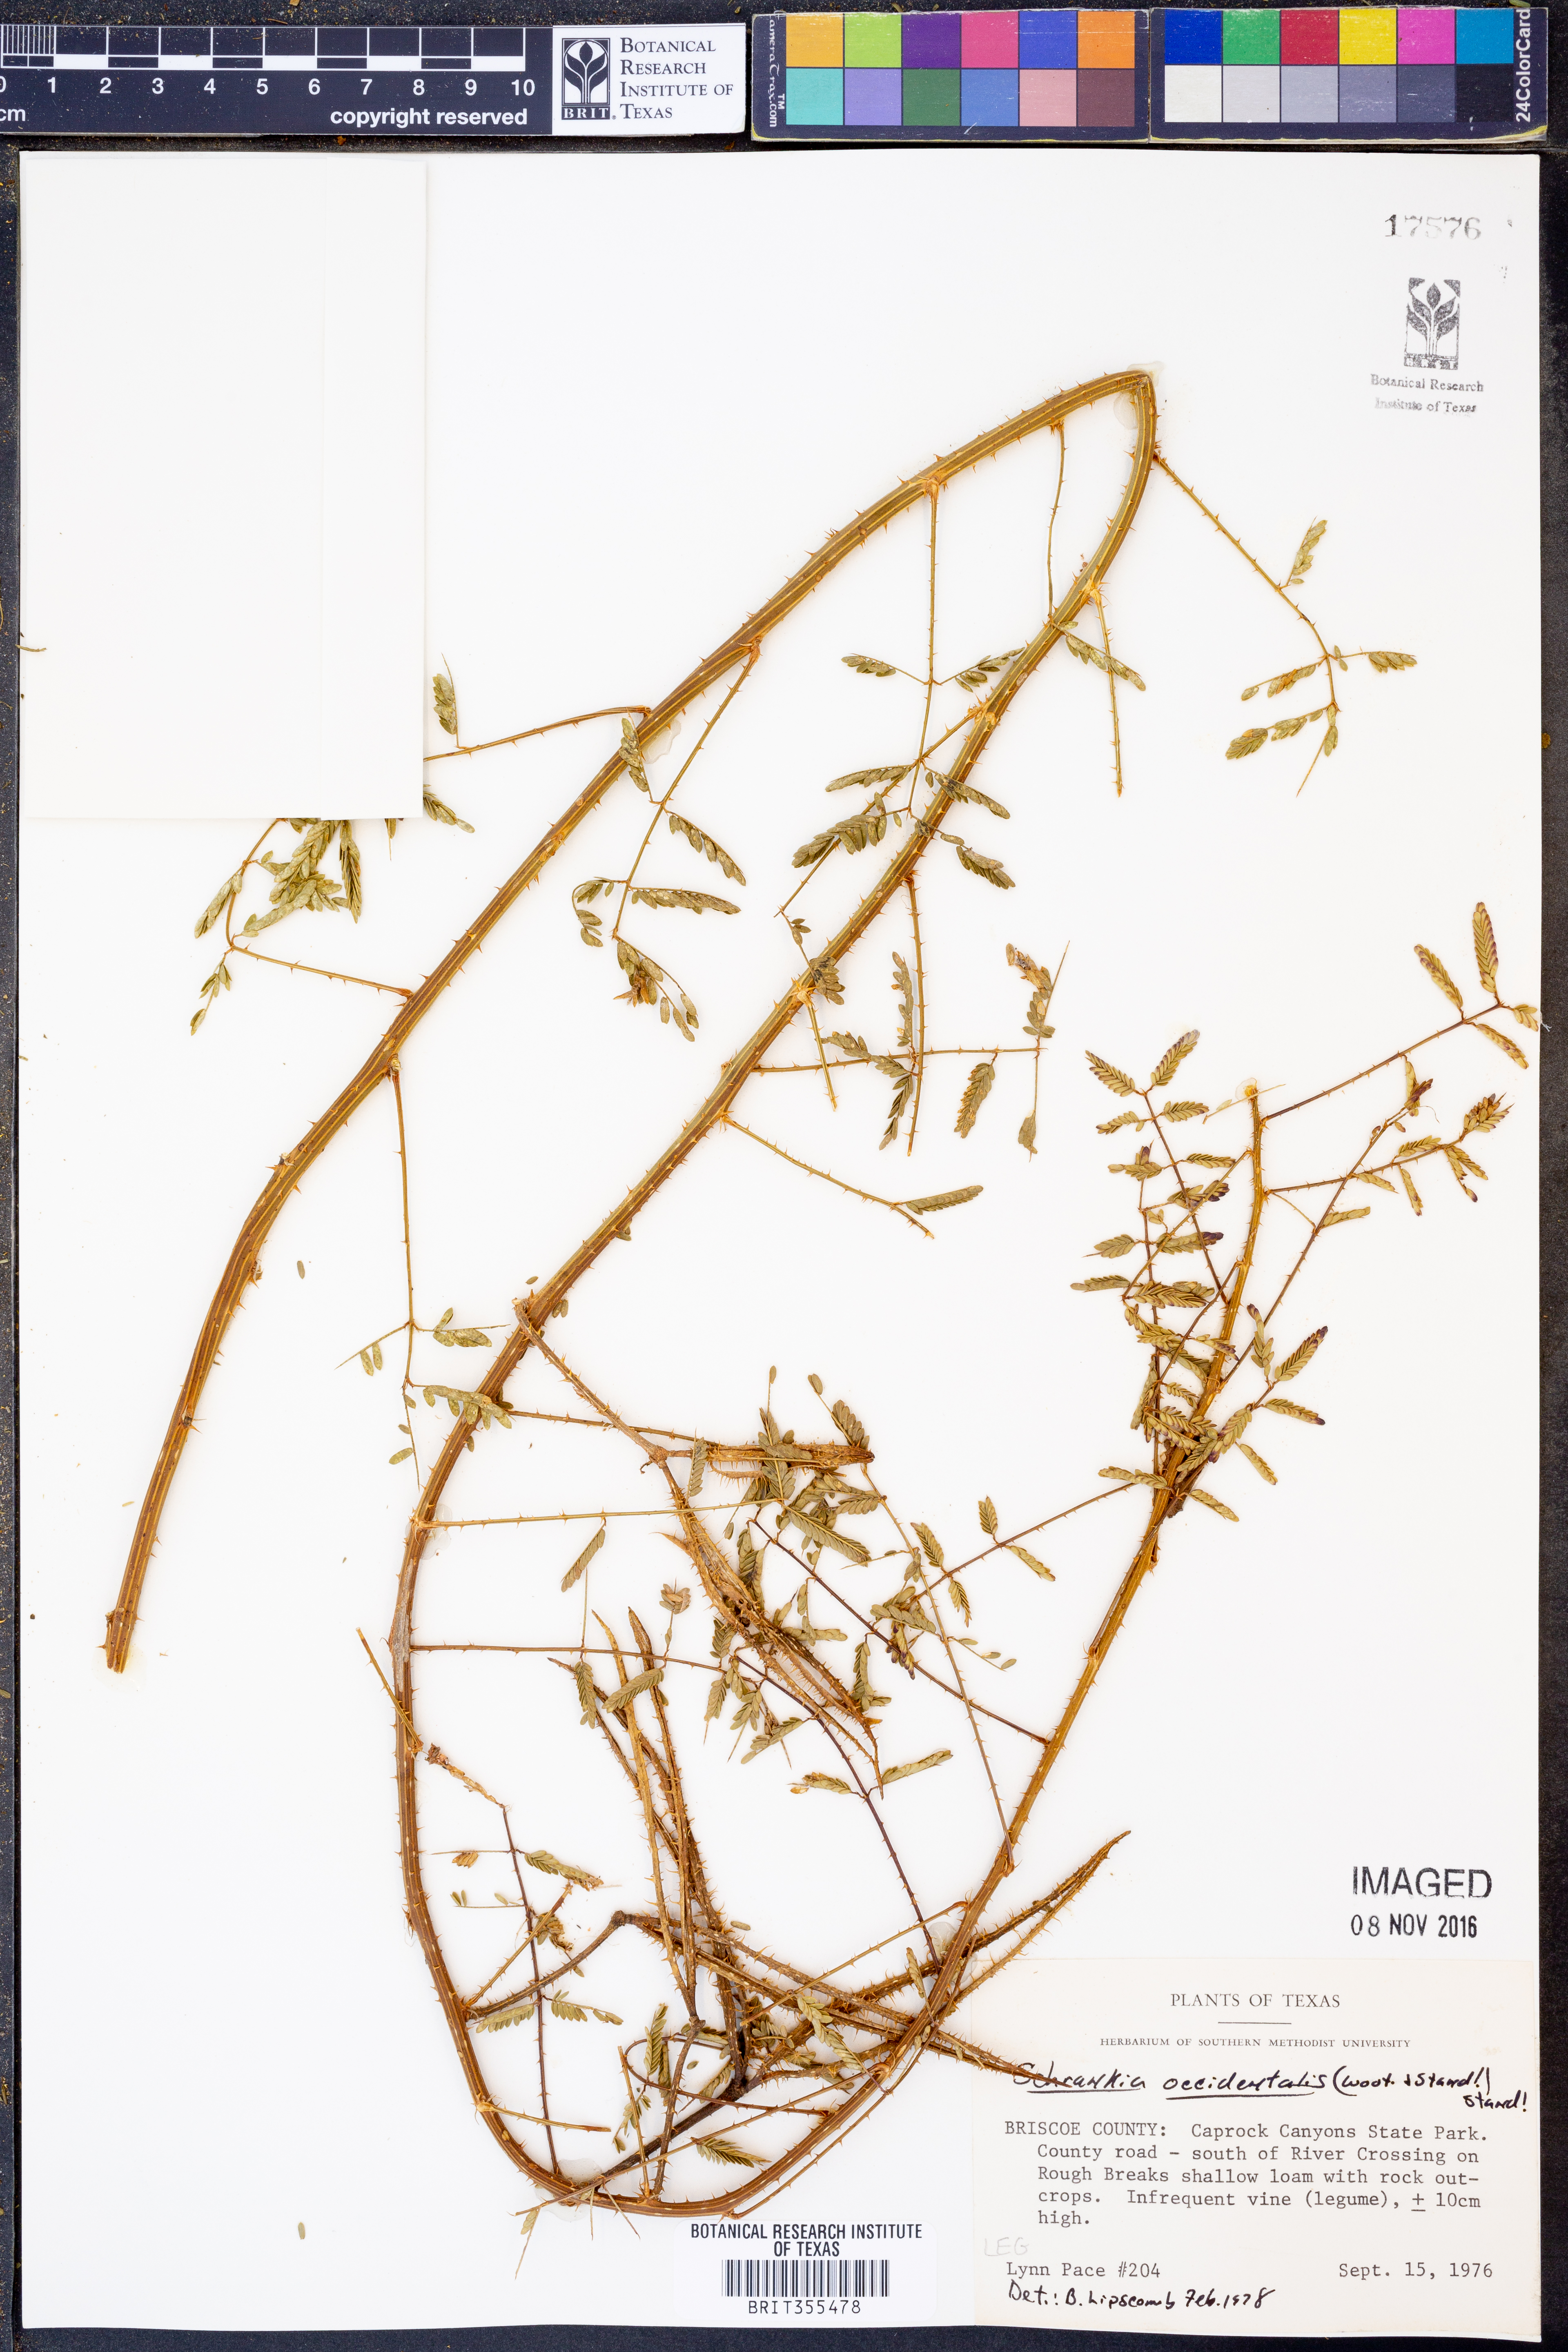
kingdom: Plantae
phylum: Tracheophyta
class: Magnoliopsida
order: Fabales
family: Fabaceae
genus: Mimosa
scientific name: Mimosa quadrivalvis
